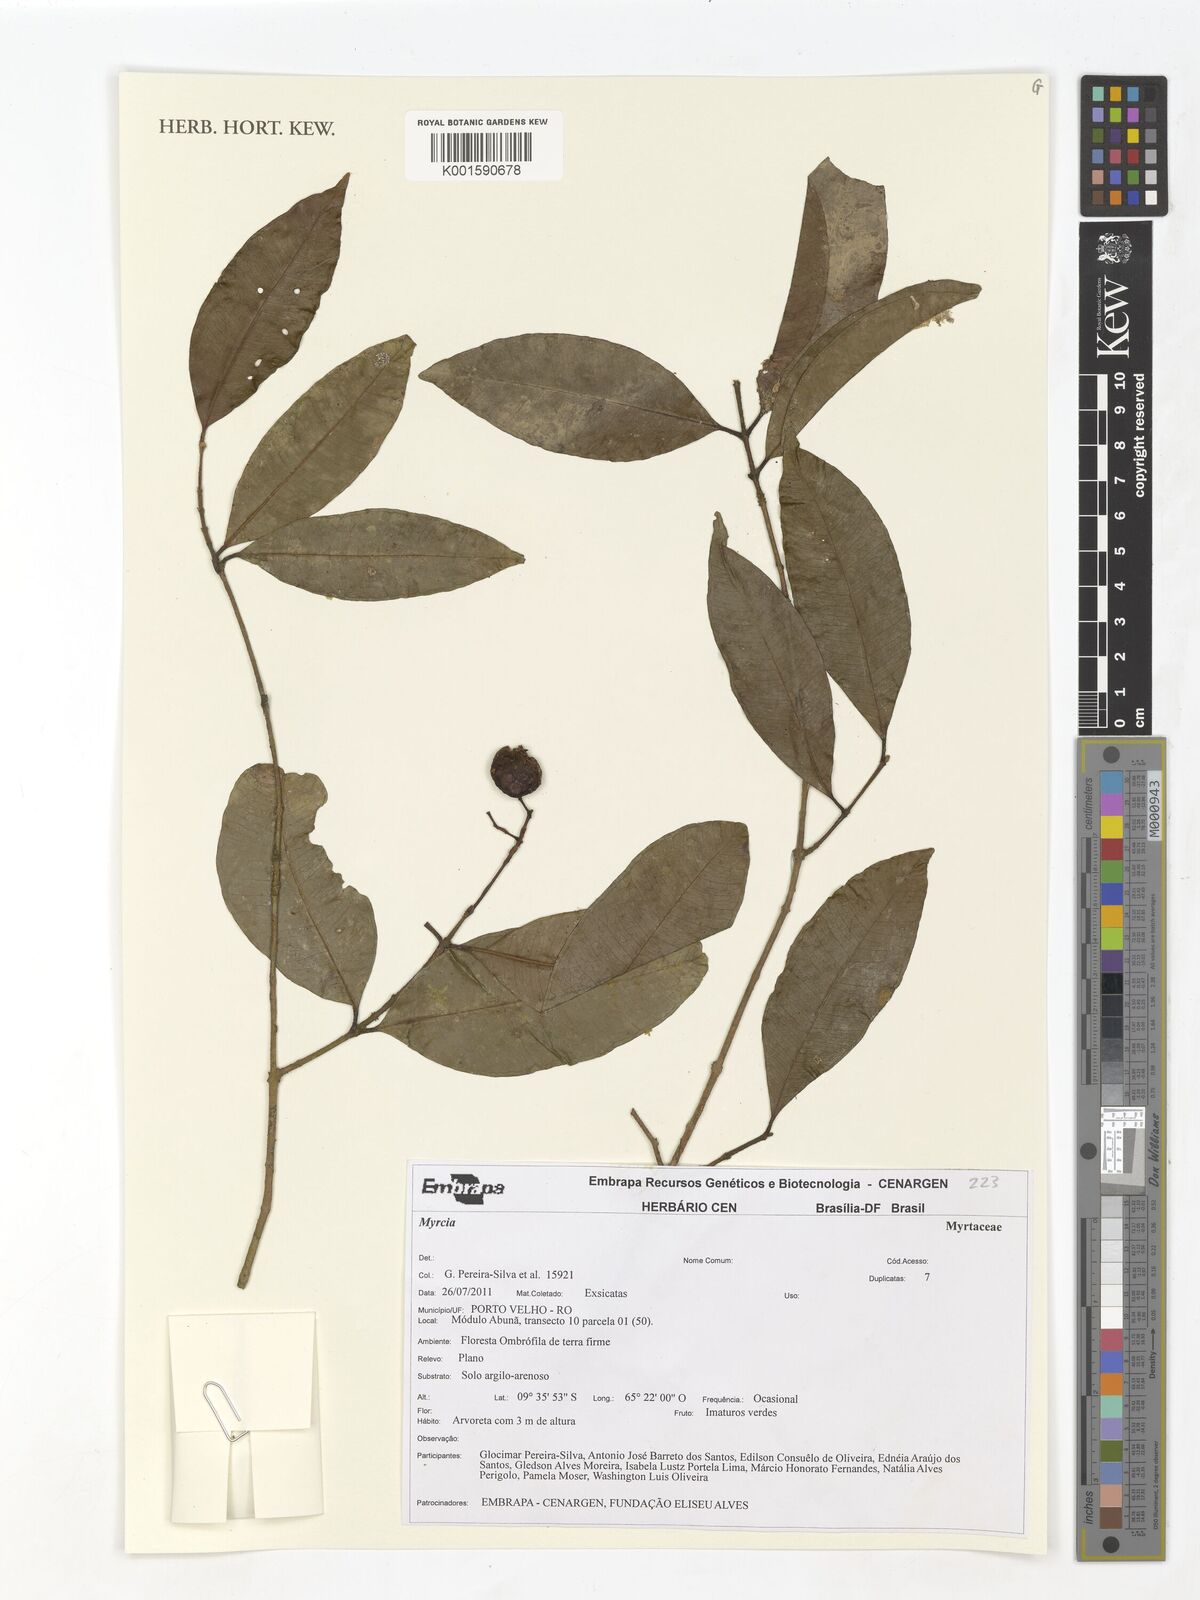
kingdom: Plantae
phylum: Tracheophyta
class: Magnoliopsida
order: Myrtales
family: Myrtaceae
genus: Myrcia
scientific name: Myrcia
